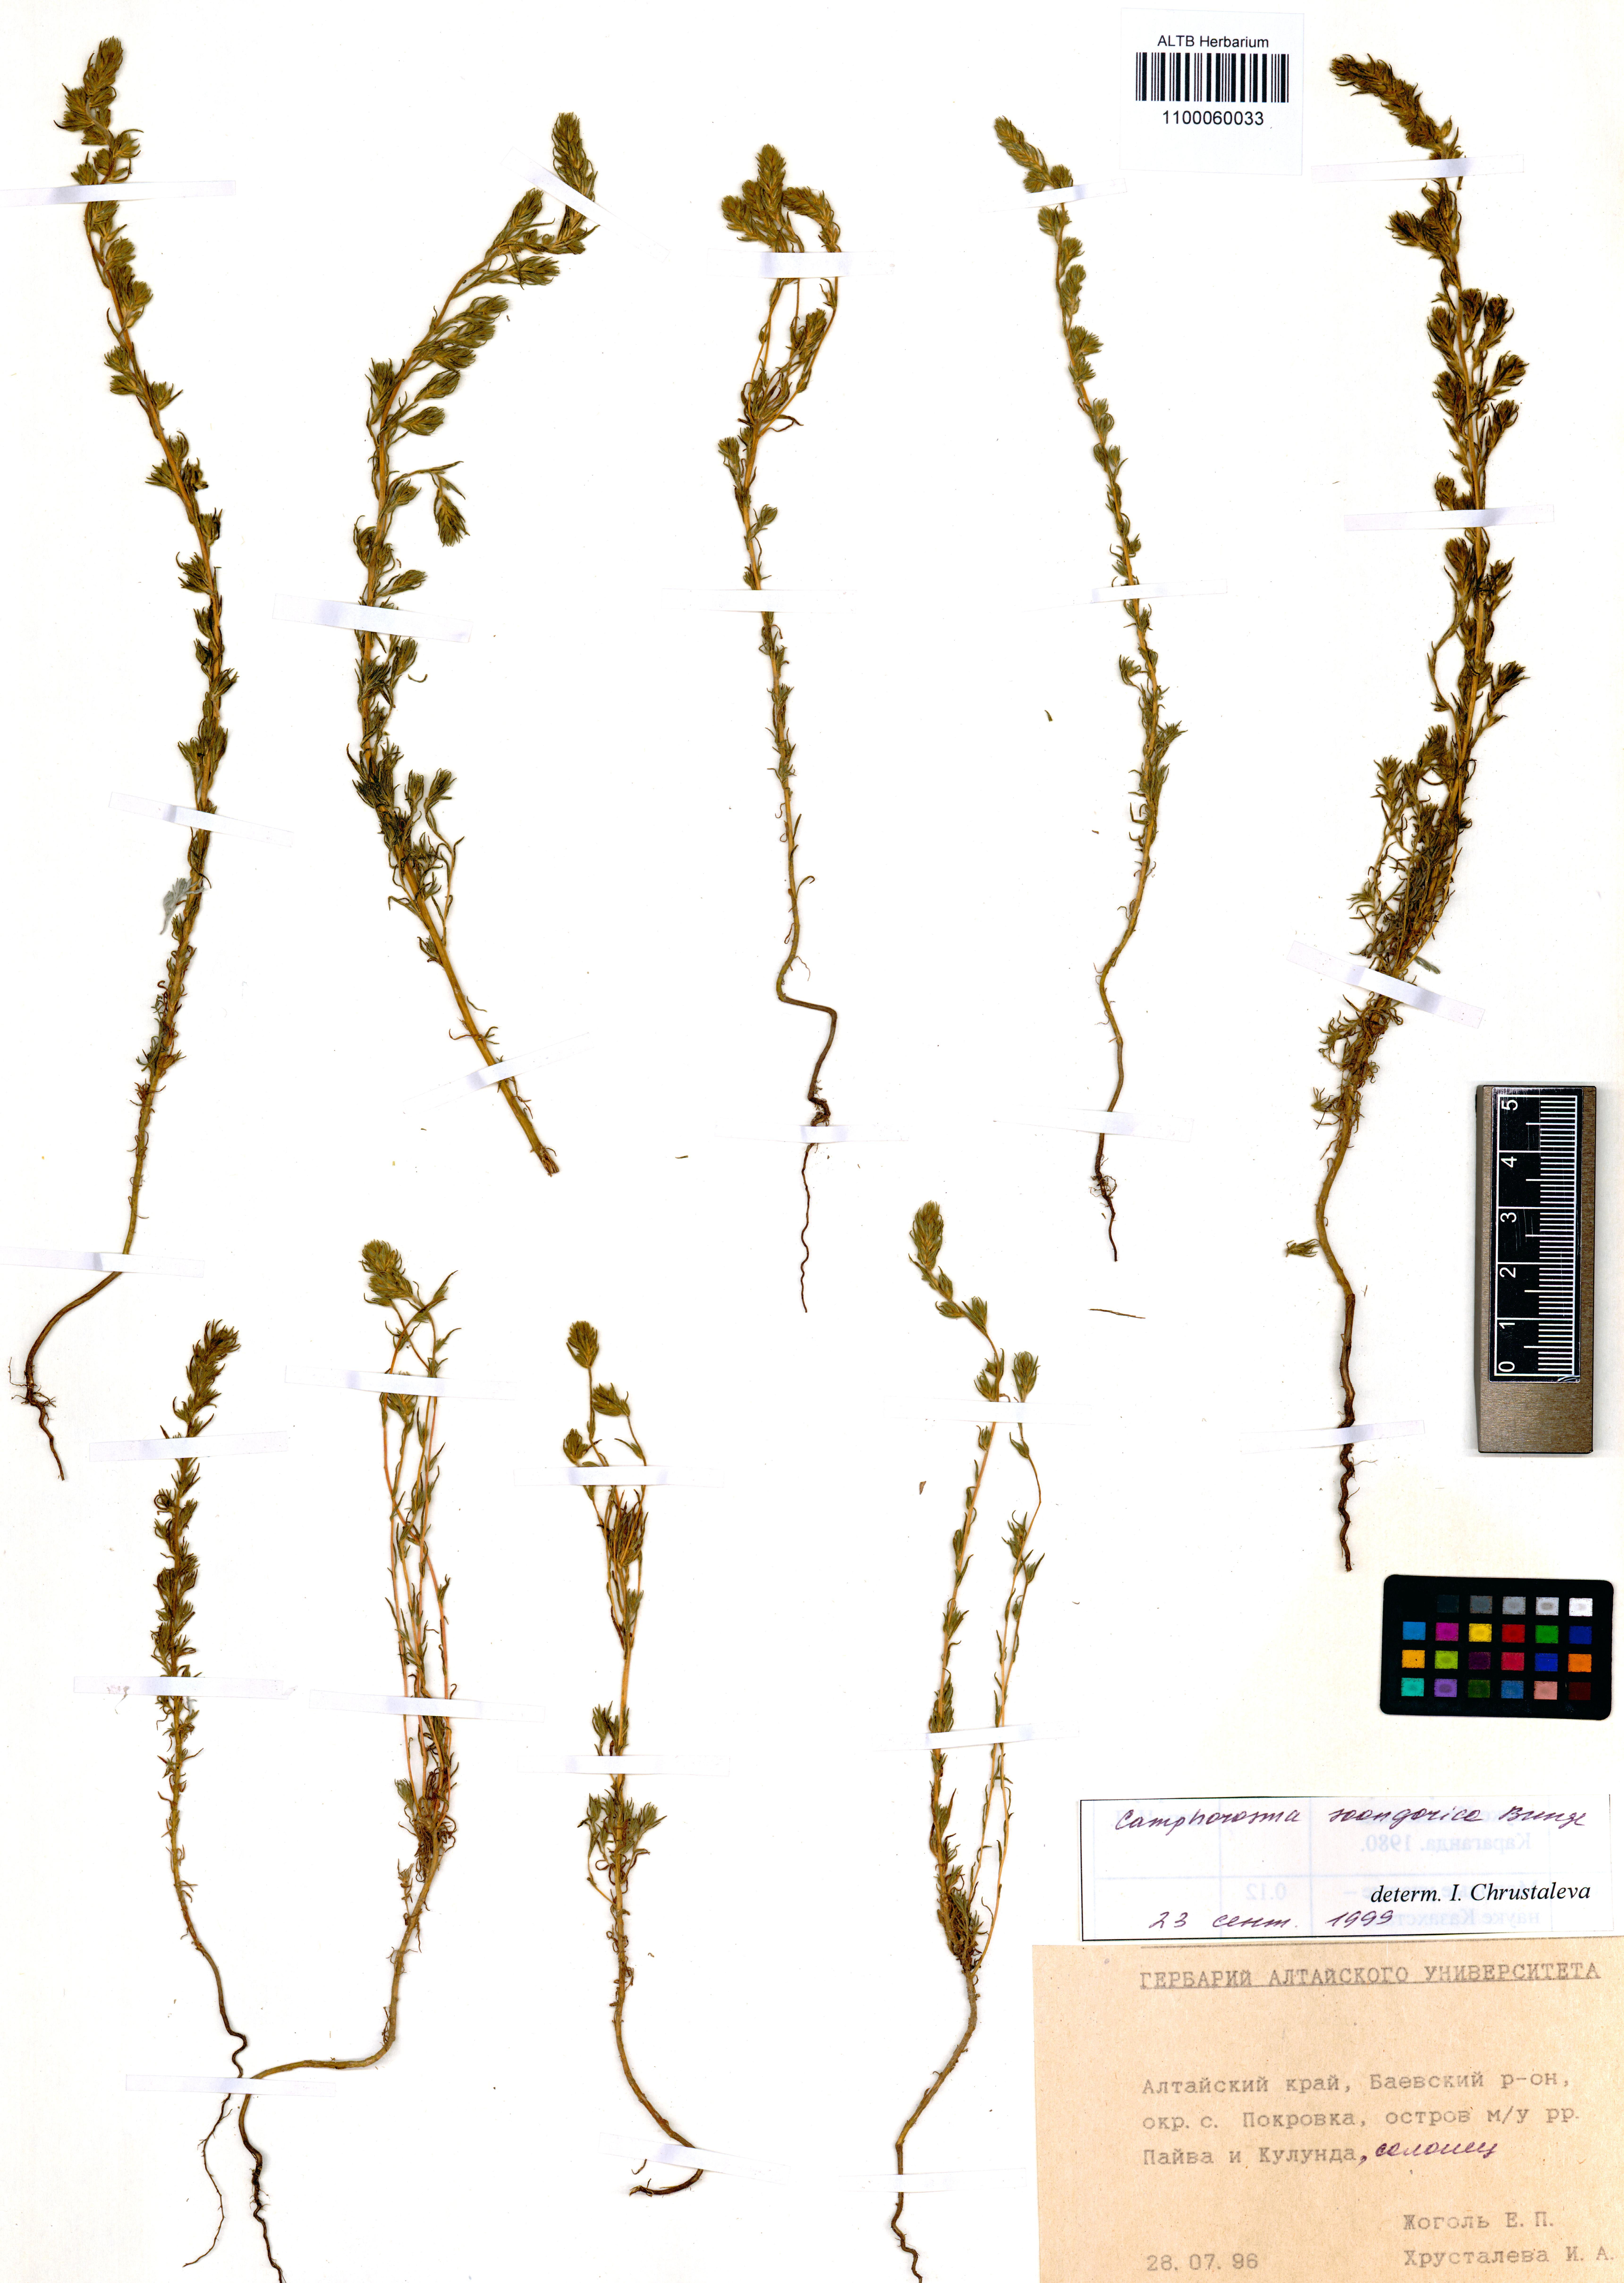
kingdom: Plantae
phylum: Tracheophyta
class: Magnoliopsida
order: Caryophyllales
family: Amaranthaceae
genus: Camphorosma
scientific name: Camphorosma songorica
